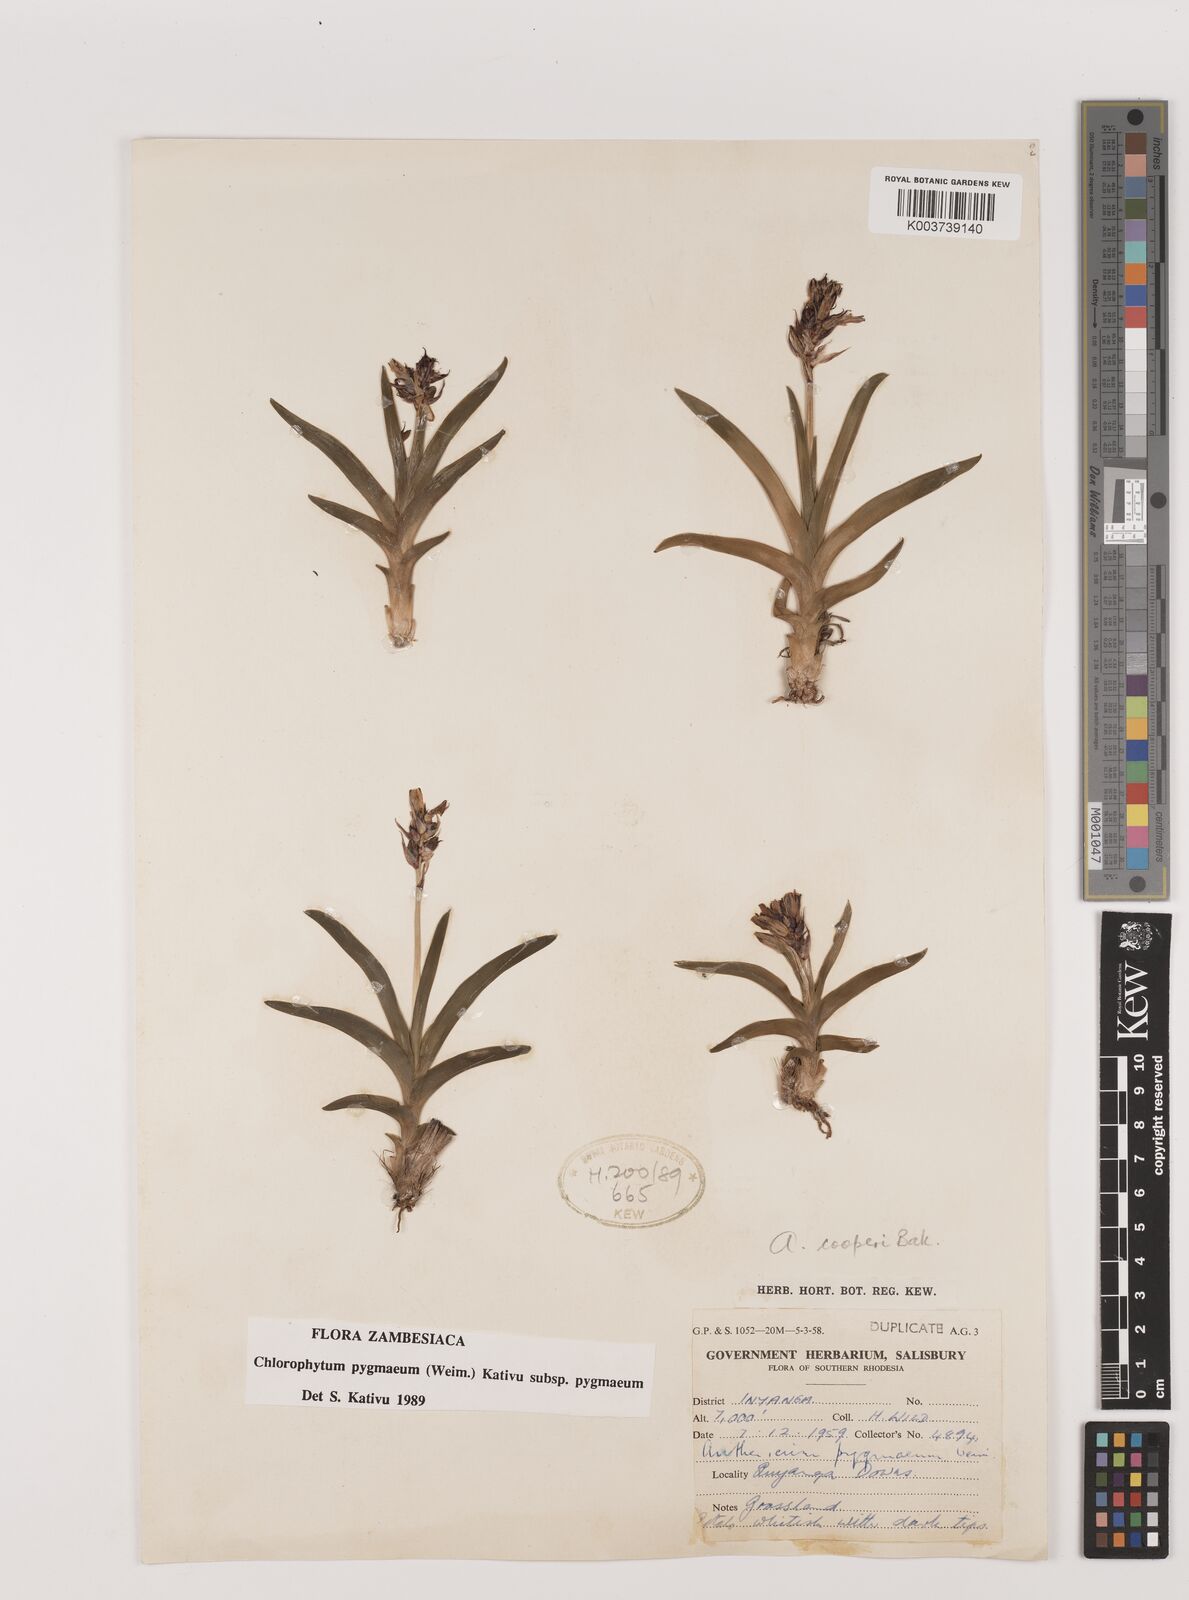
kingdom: Plantae
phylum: Tracheophyta
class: Liliopsida
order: Asparagales
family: Asparagaceae
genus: Chlorophytum
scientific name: Chlorophytum pygmaeum
